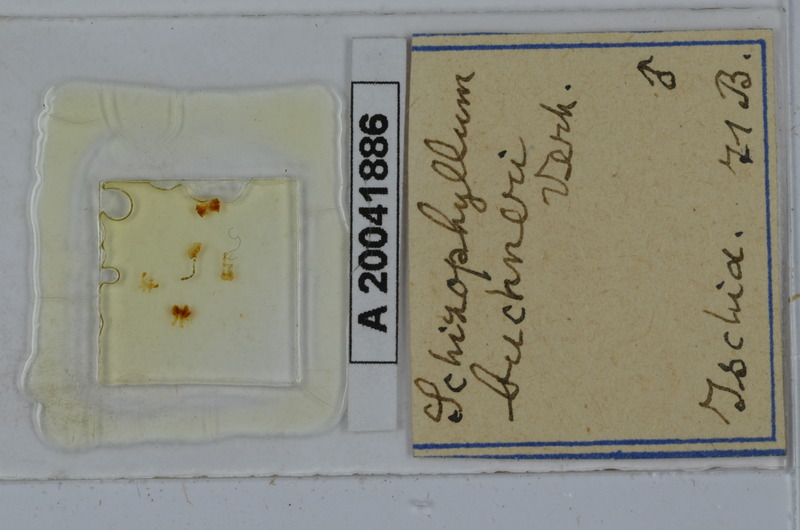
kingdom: Animalia
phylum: Arthropoda
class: Diplopoda
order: Julida
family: Julidae
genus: Schizophyllum
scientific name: Schizophyllum buchneri
